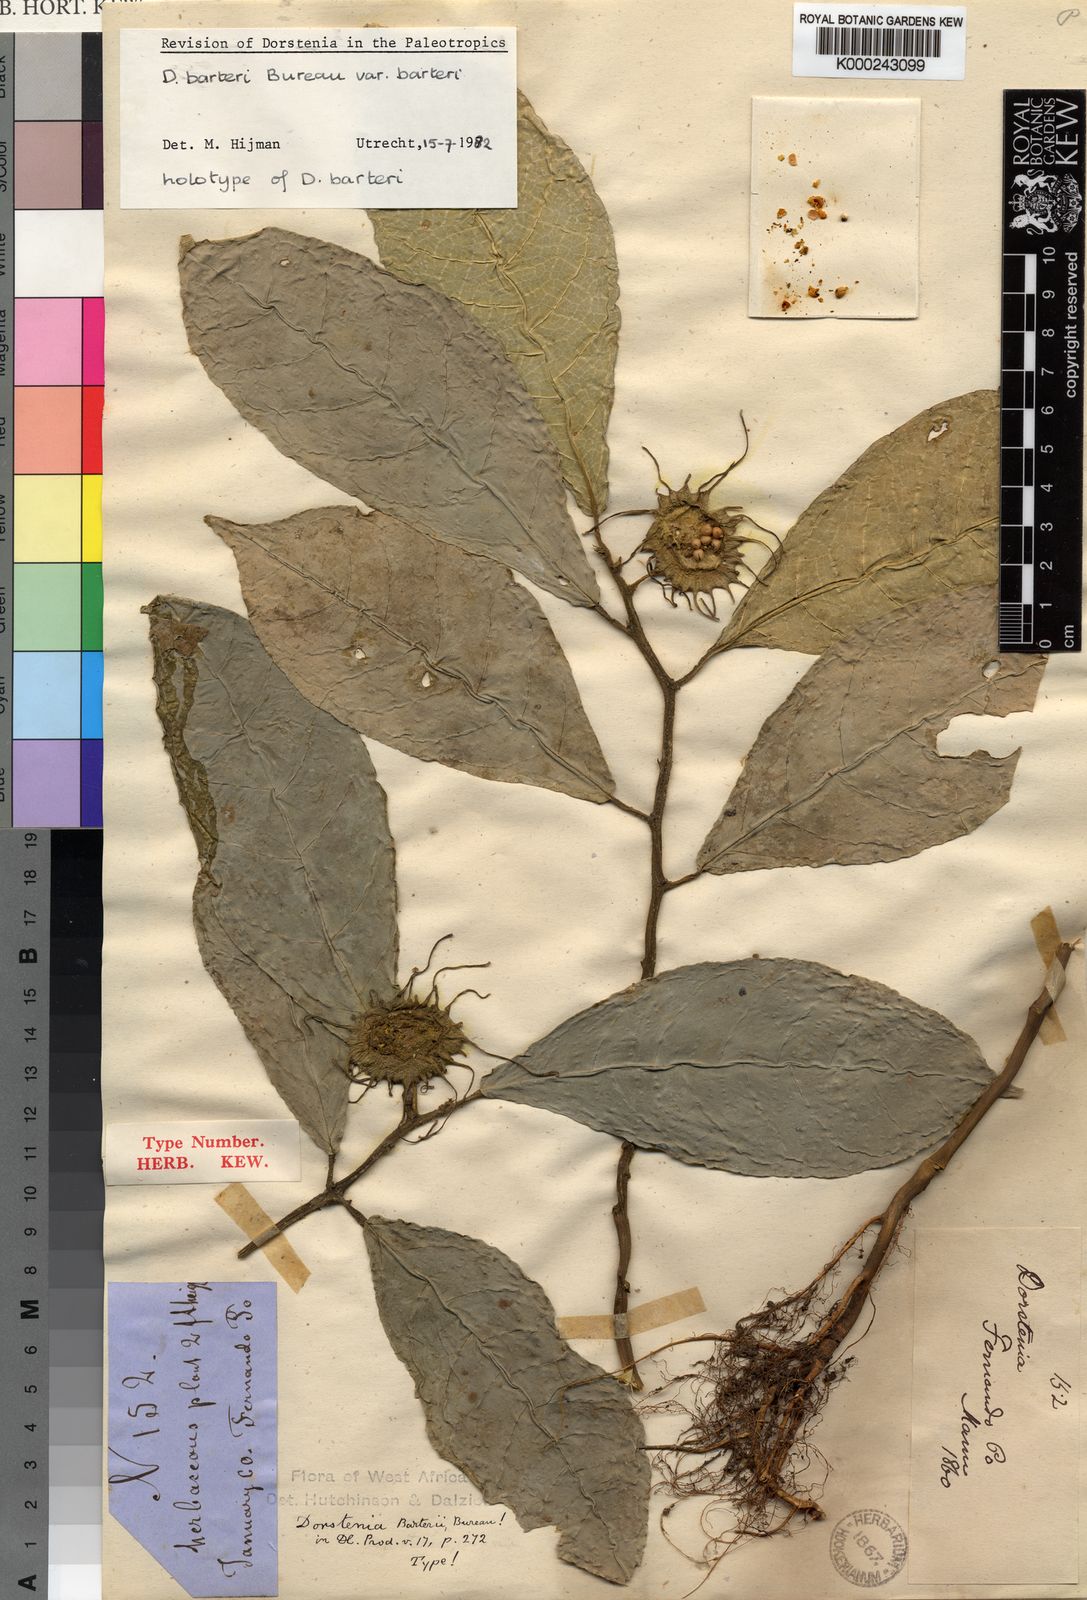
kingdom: Plantae
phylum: Tracheophyta
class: Magnoliopsida
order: Rosales
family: Moraceae
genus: Dorstenia
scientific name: Dorstenia barteri
